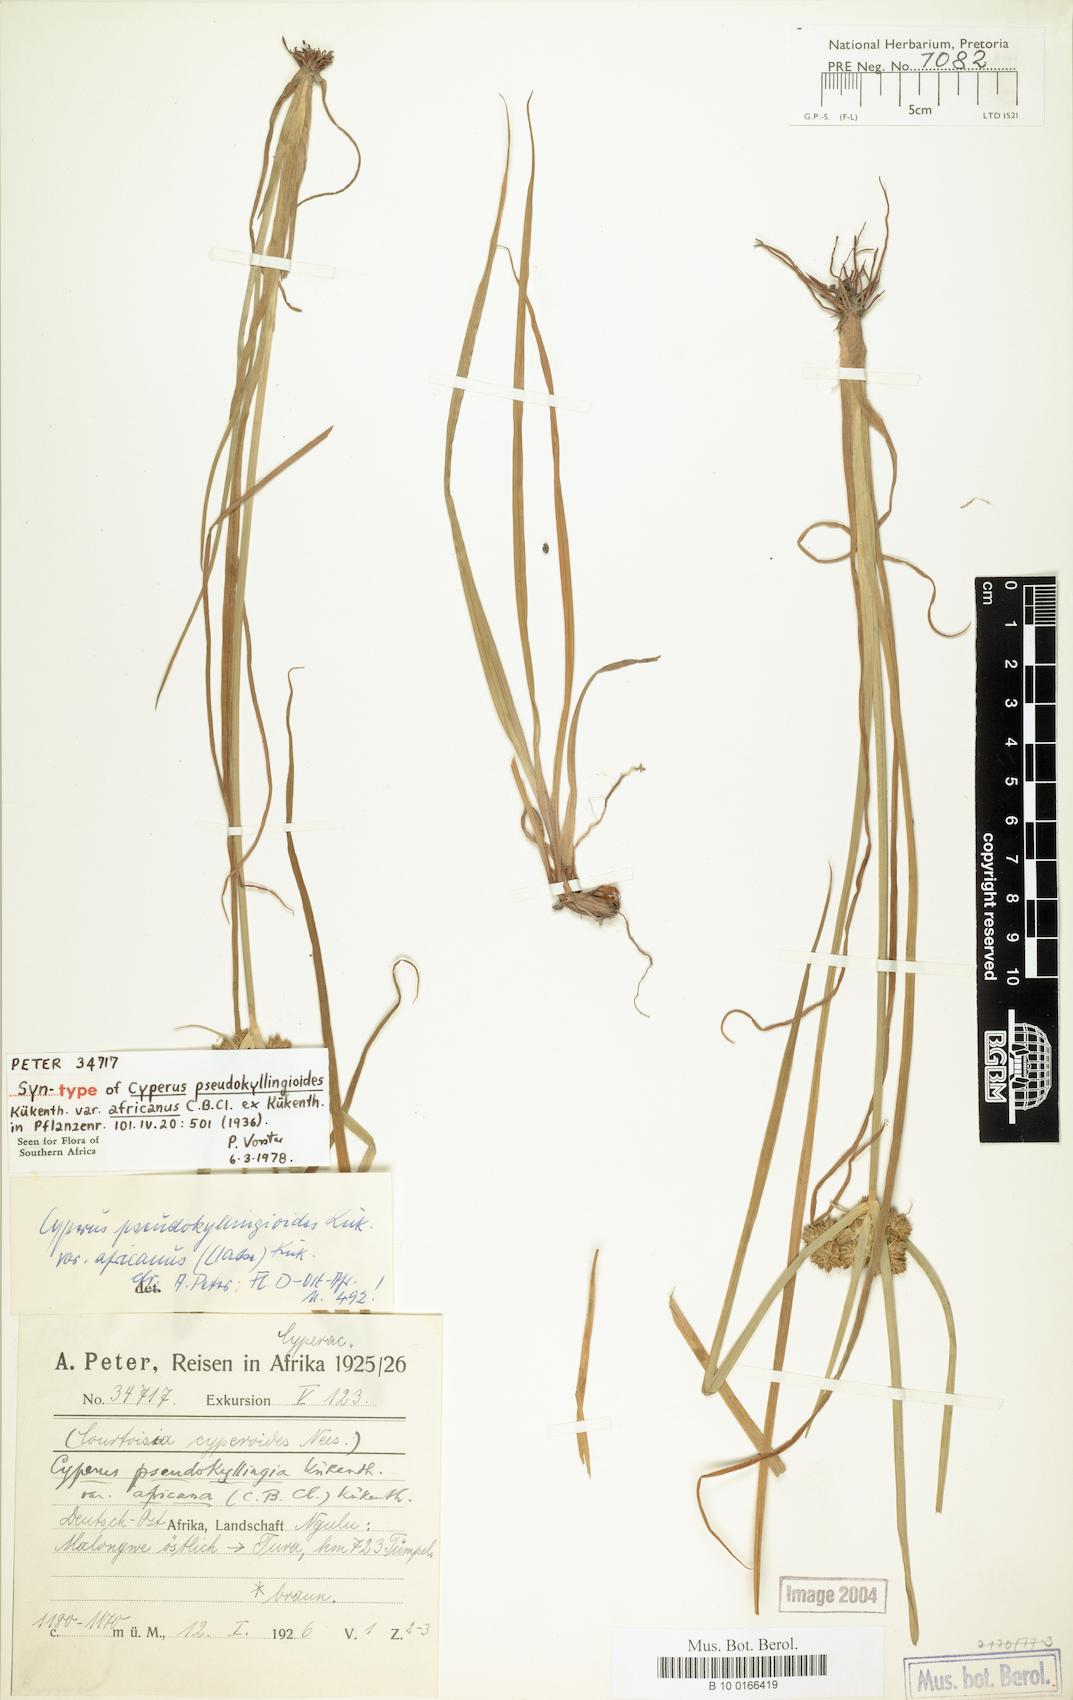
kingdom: Plantae
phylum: Tracheophyta
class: Liliopsida
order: Poales
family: Cyperaceae
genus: Cyperus
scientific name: Cyperus pseudokyllingioides
